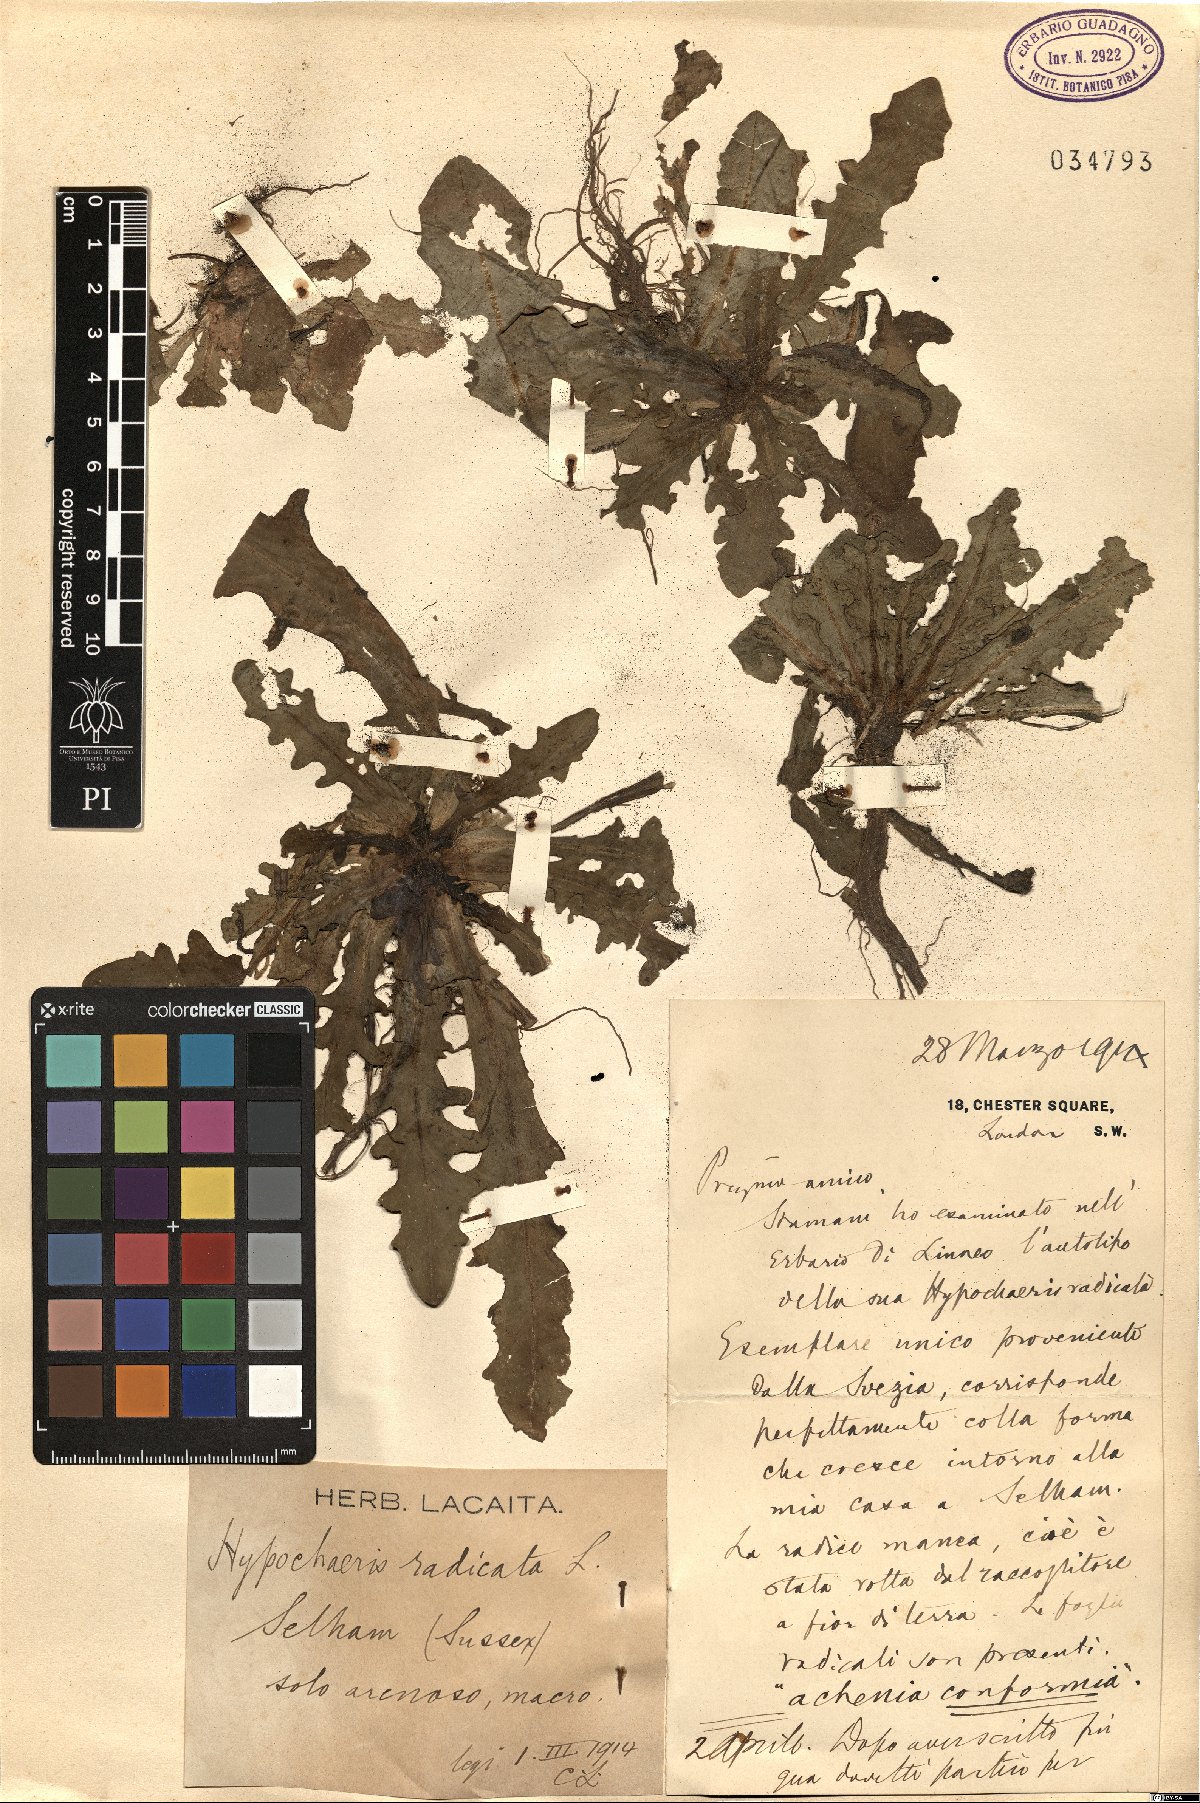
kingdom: Plantae
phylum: Tracheophyta
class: Magnoliopsida
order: Asterales
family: Asteraceae
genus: Hypochaeris
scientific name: Hypochaeris radicata
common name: Flatweed
